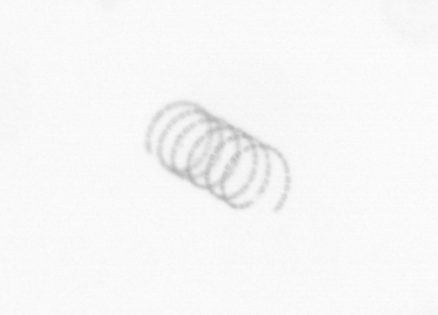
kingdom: Chromista
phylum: Ochrophyta
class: Bacillariophyceae
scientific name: Bacillariophyceae
